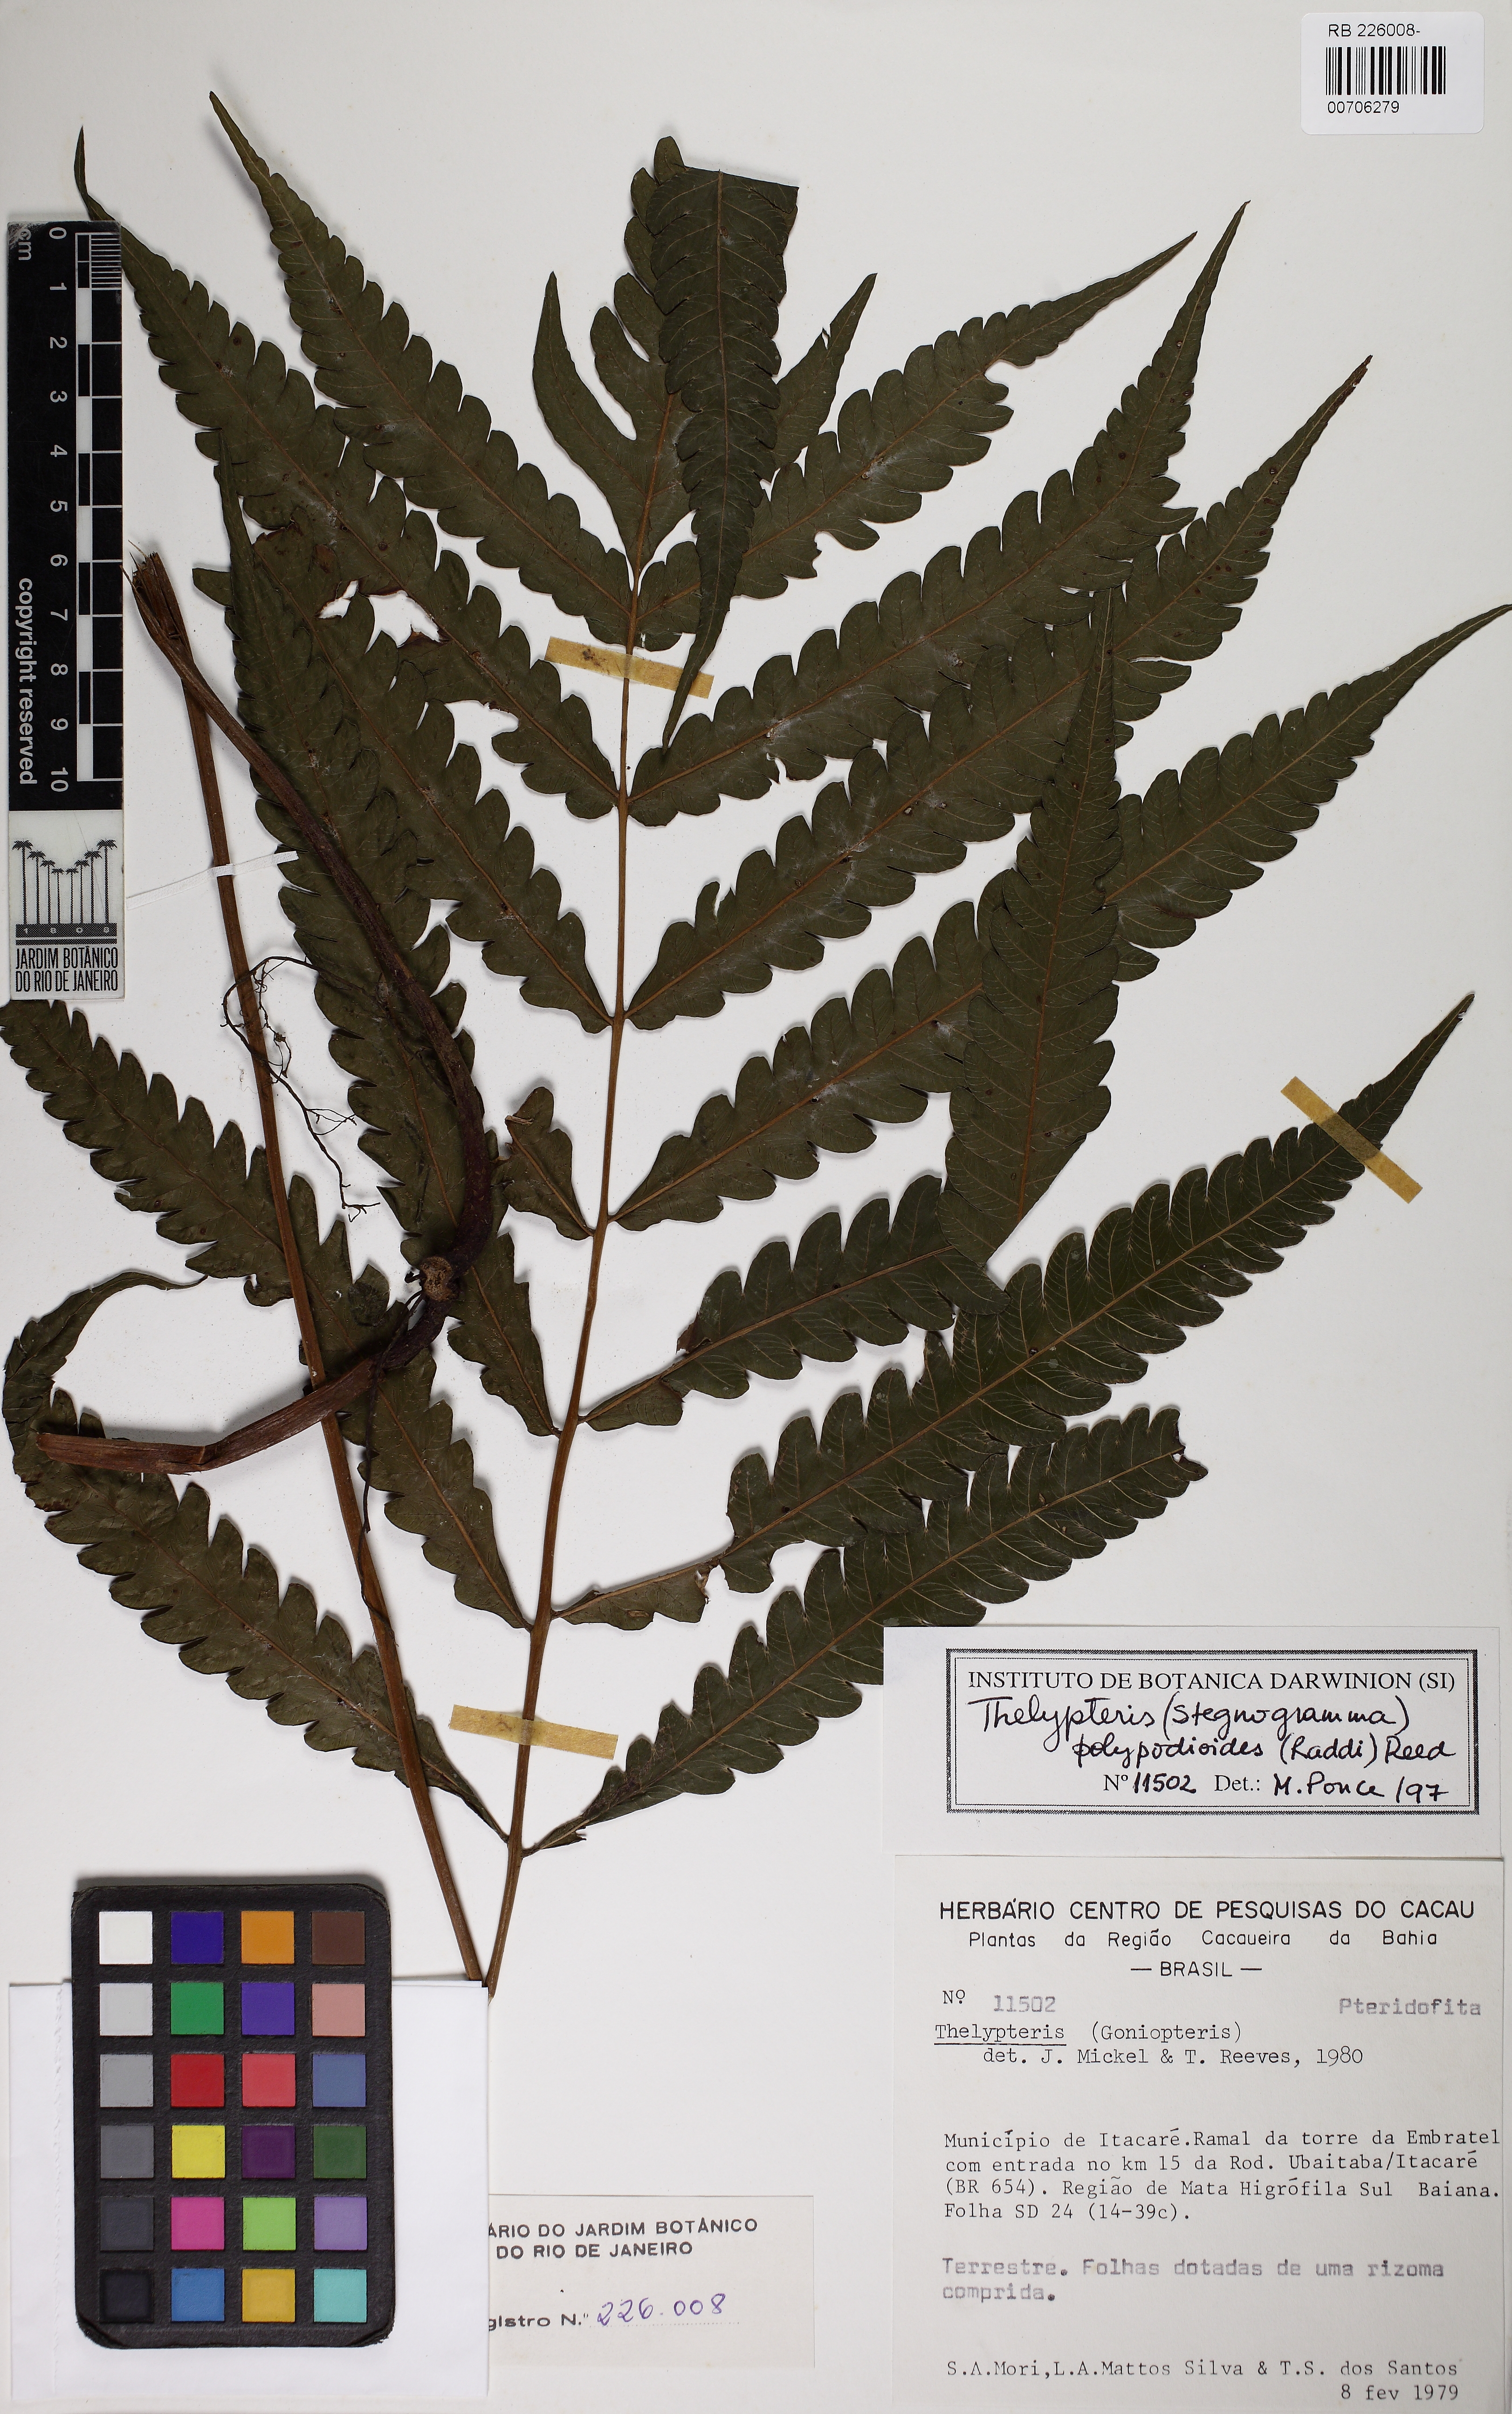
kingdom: Plantae
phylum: Tracheophyta
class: Polypodiopsida
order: Polypodiales
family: Thelypteridaceae
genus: Steiropteris
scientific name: Steiropteris polypodioides
